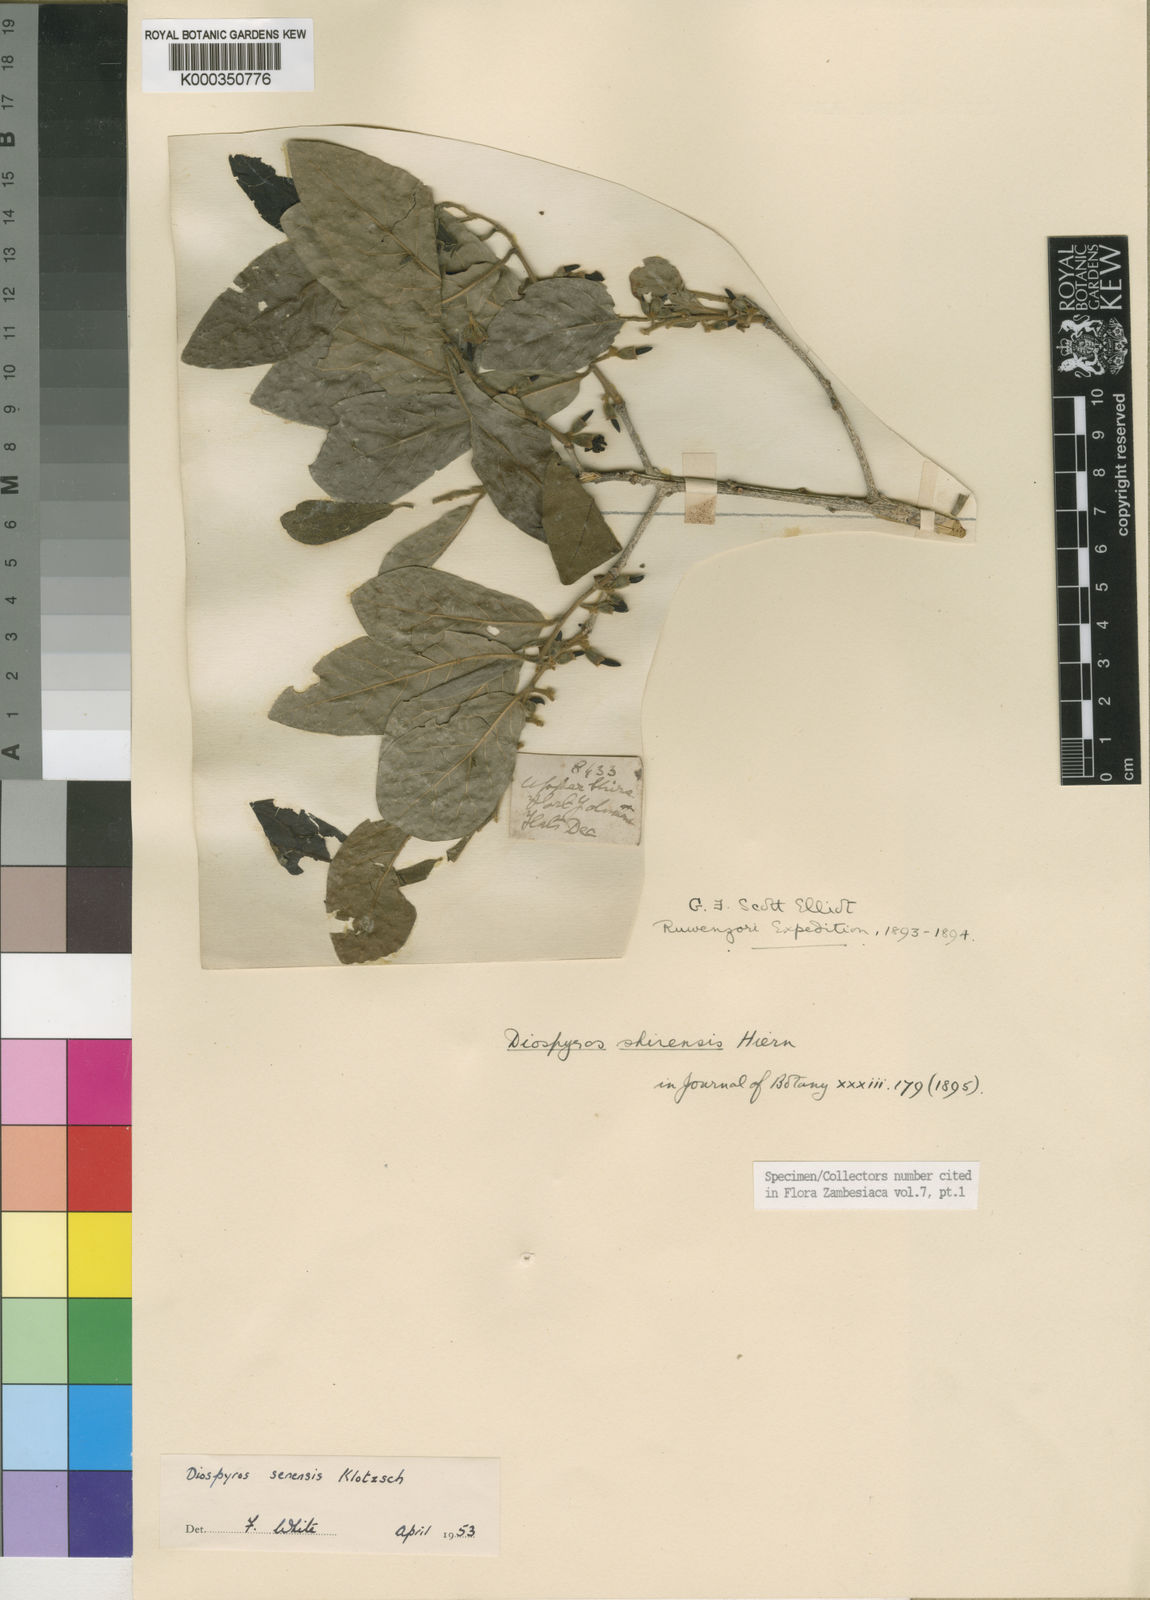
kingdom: Plantae
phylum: Tracheophyta
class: Magnoliopsida
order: Ericales
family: Ebenaceae
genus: Diospyros
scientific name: Diospyros senensis
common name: Spiny jackal berry
